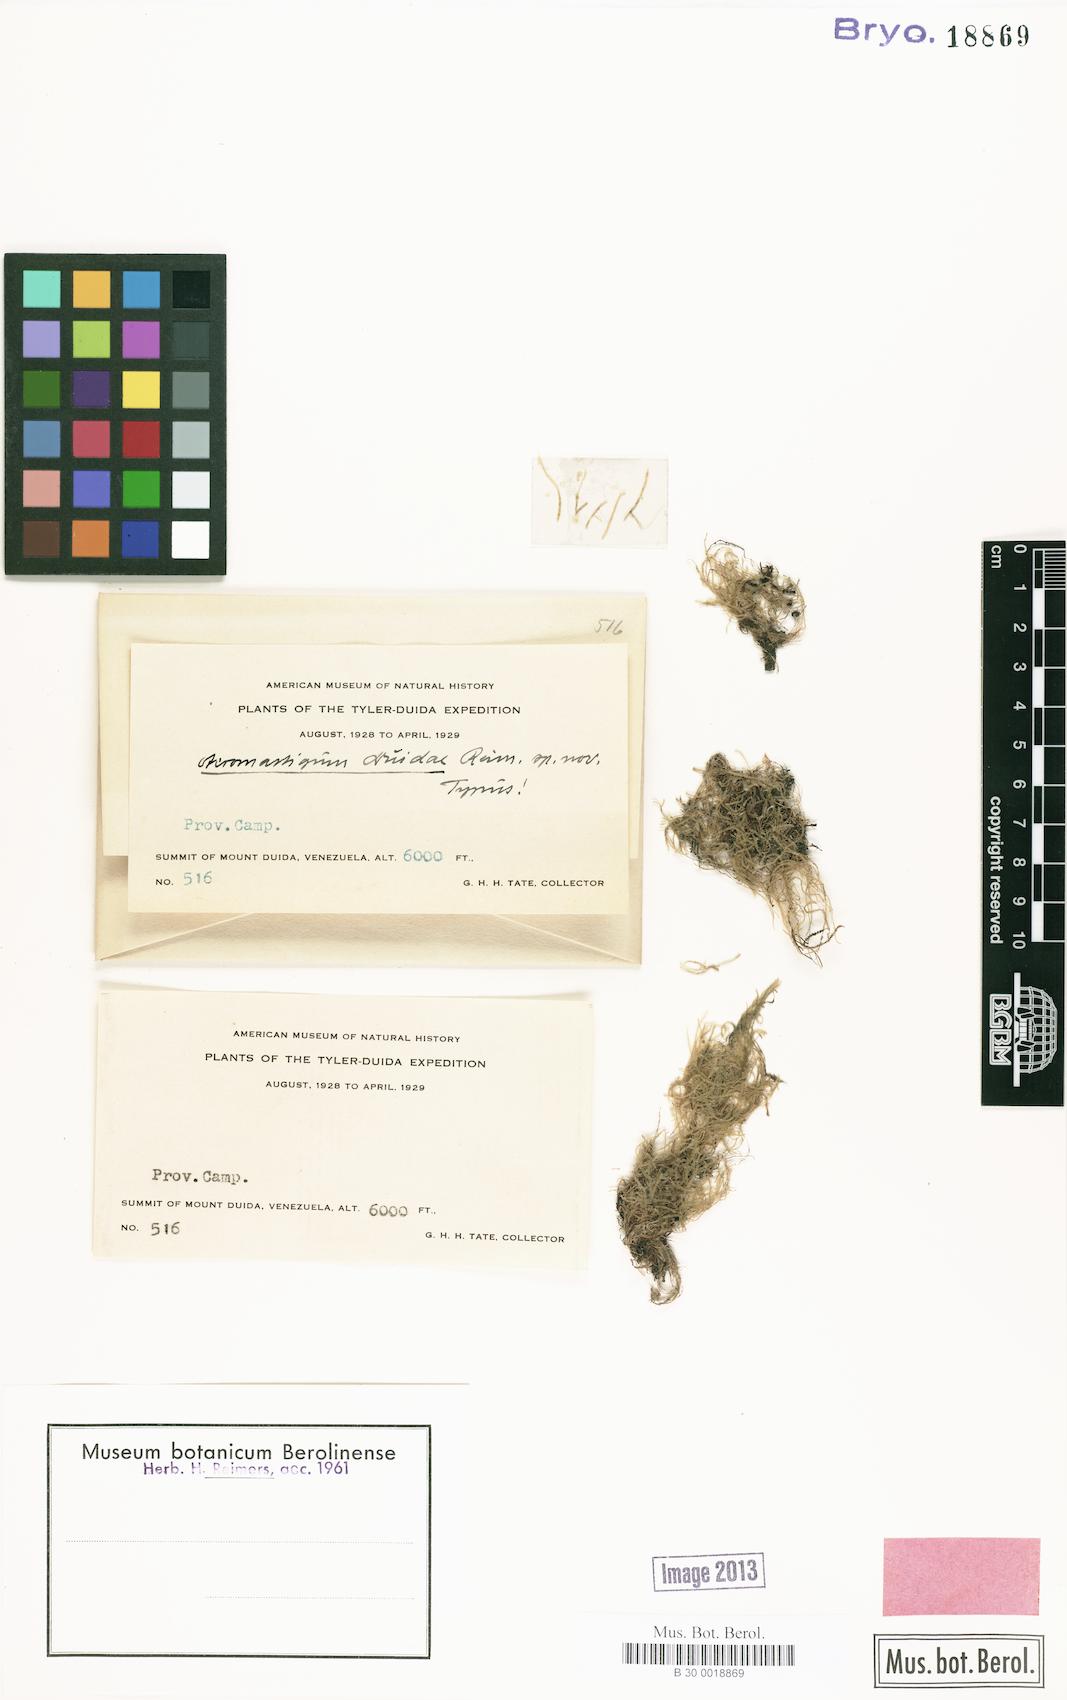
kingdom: Plantae
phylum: Marchantiophyta
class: Jungermanniopsida
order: Jungermanniales
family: Lepidoziaceae
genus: Acromastigum
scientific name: Acromastigum
